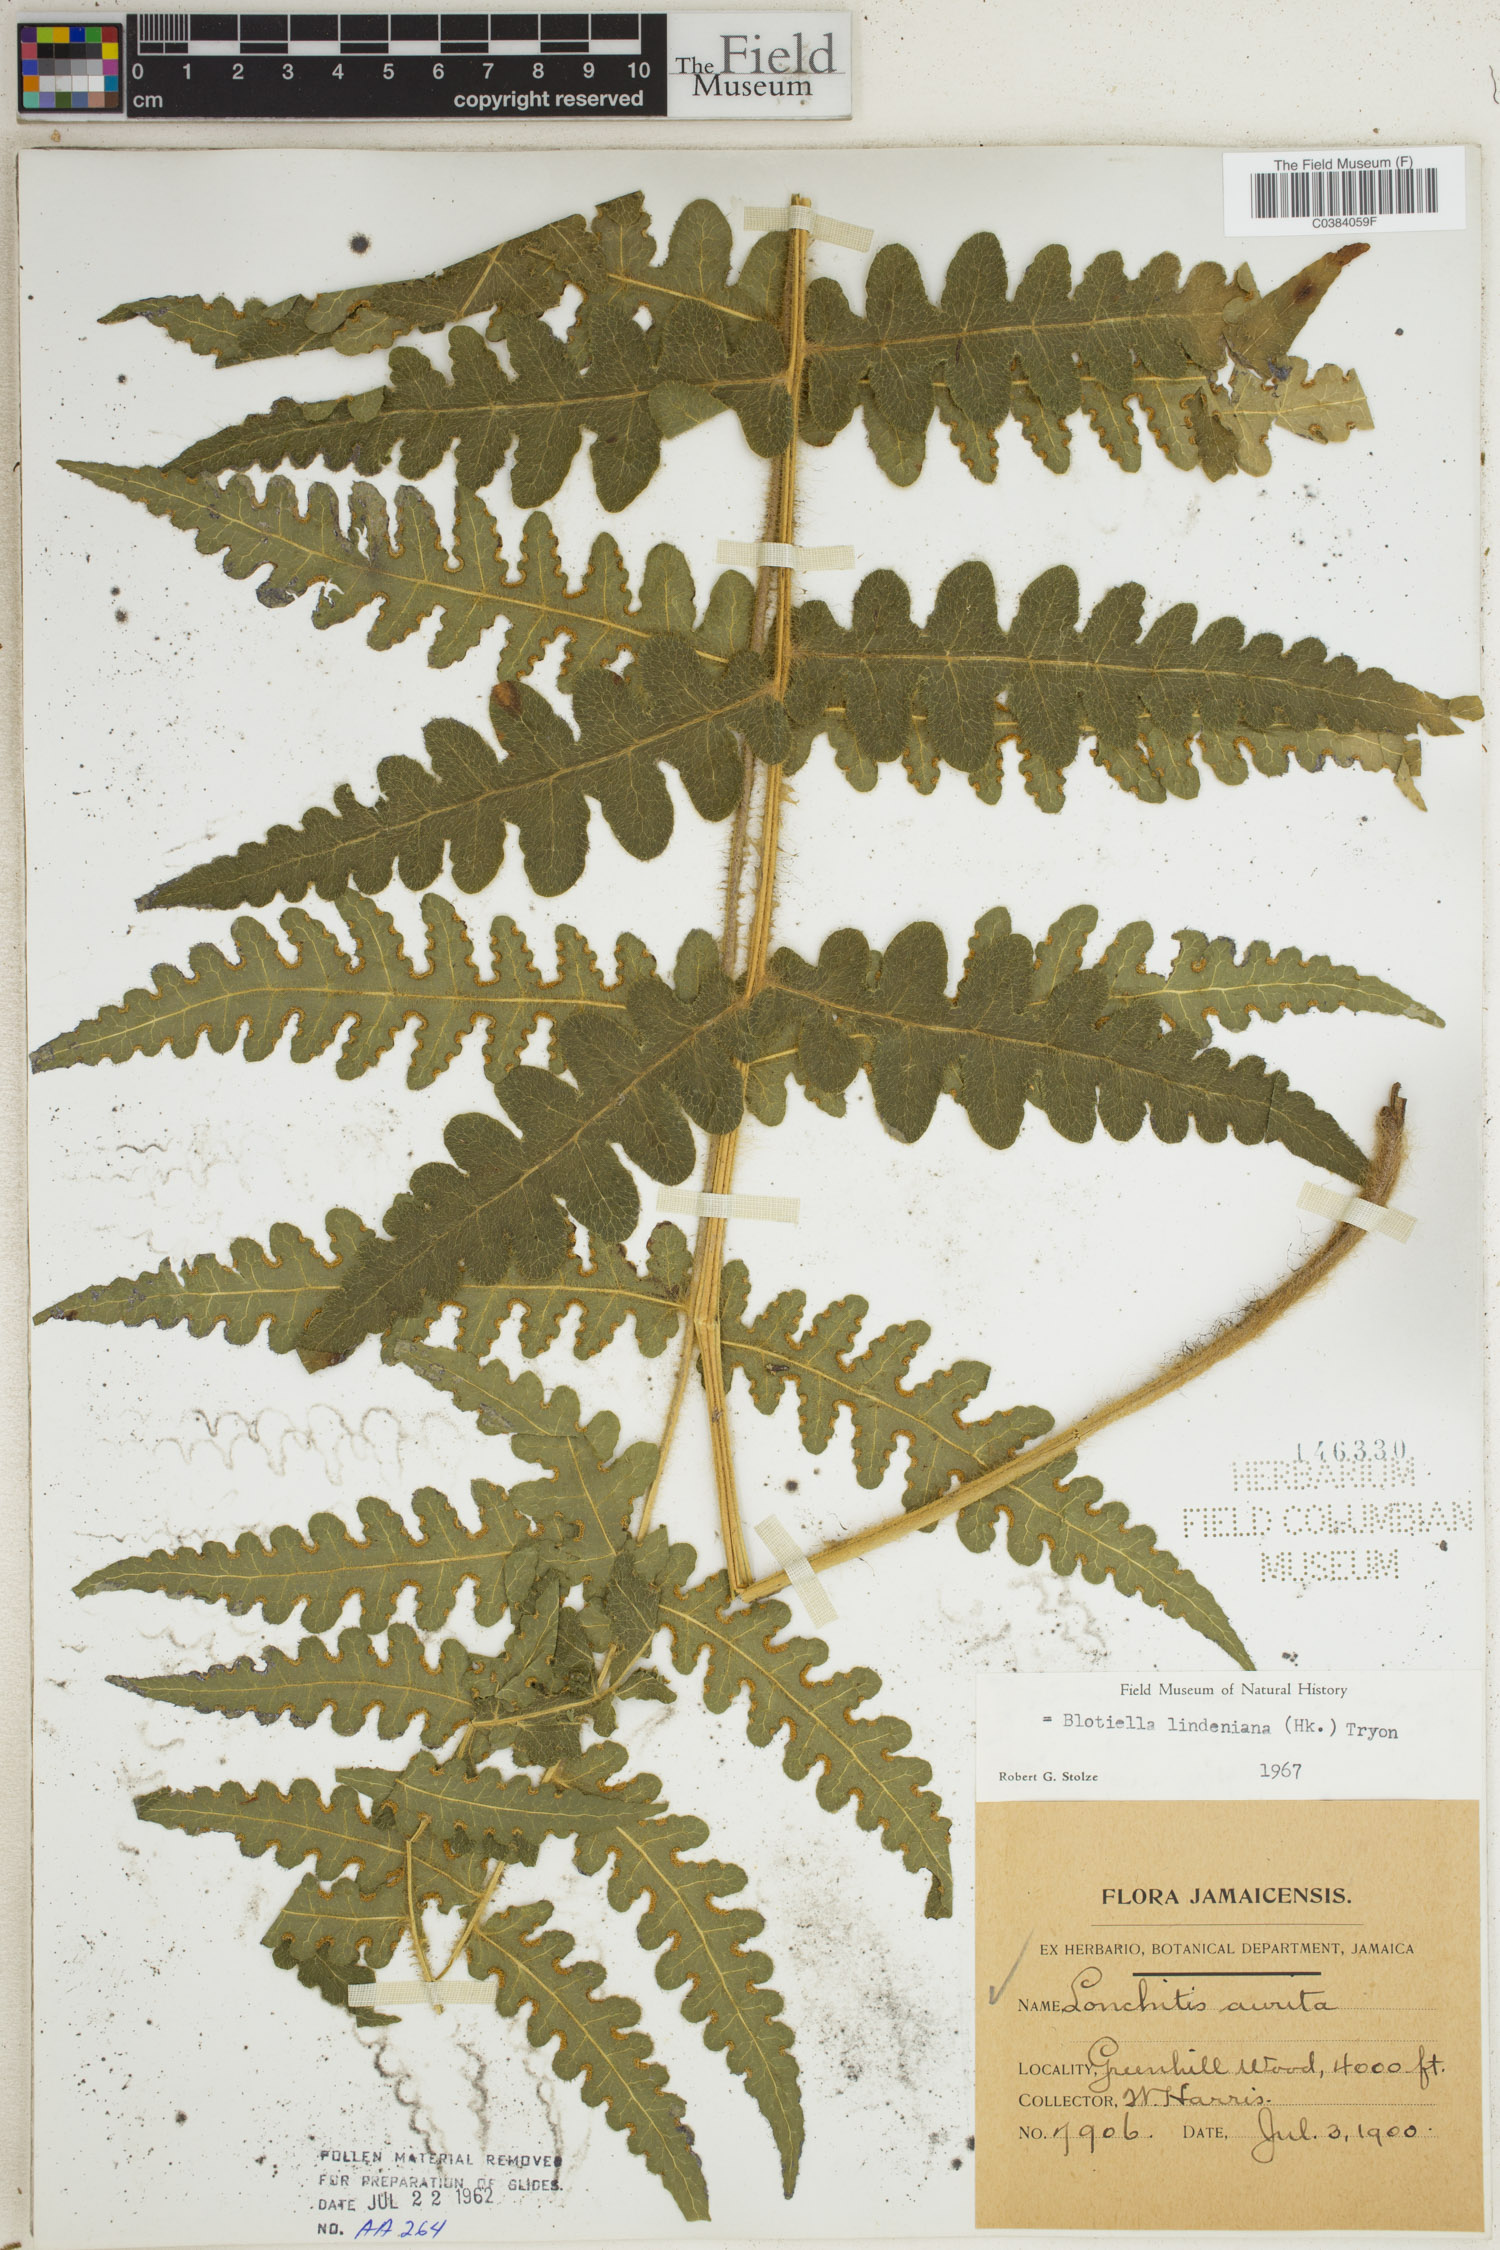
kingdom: Plantae
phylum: Tracheophyta
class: Polypodiopsida
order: Polypodiales
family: Dennstaedtiaceae
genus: Blotiella
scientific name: Blotiella aurita
